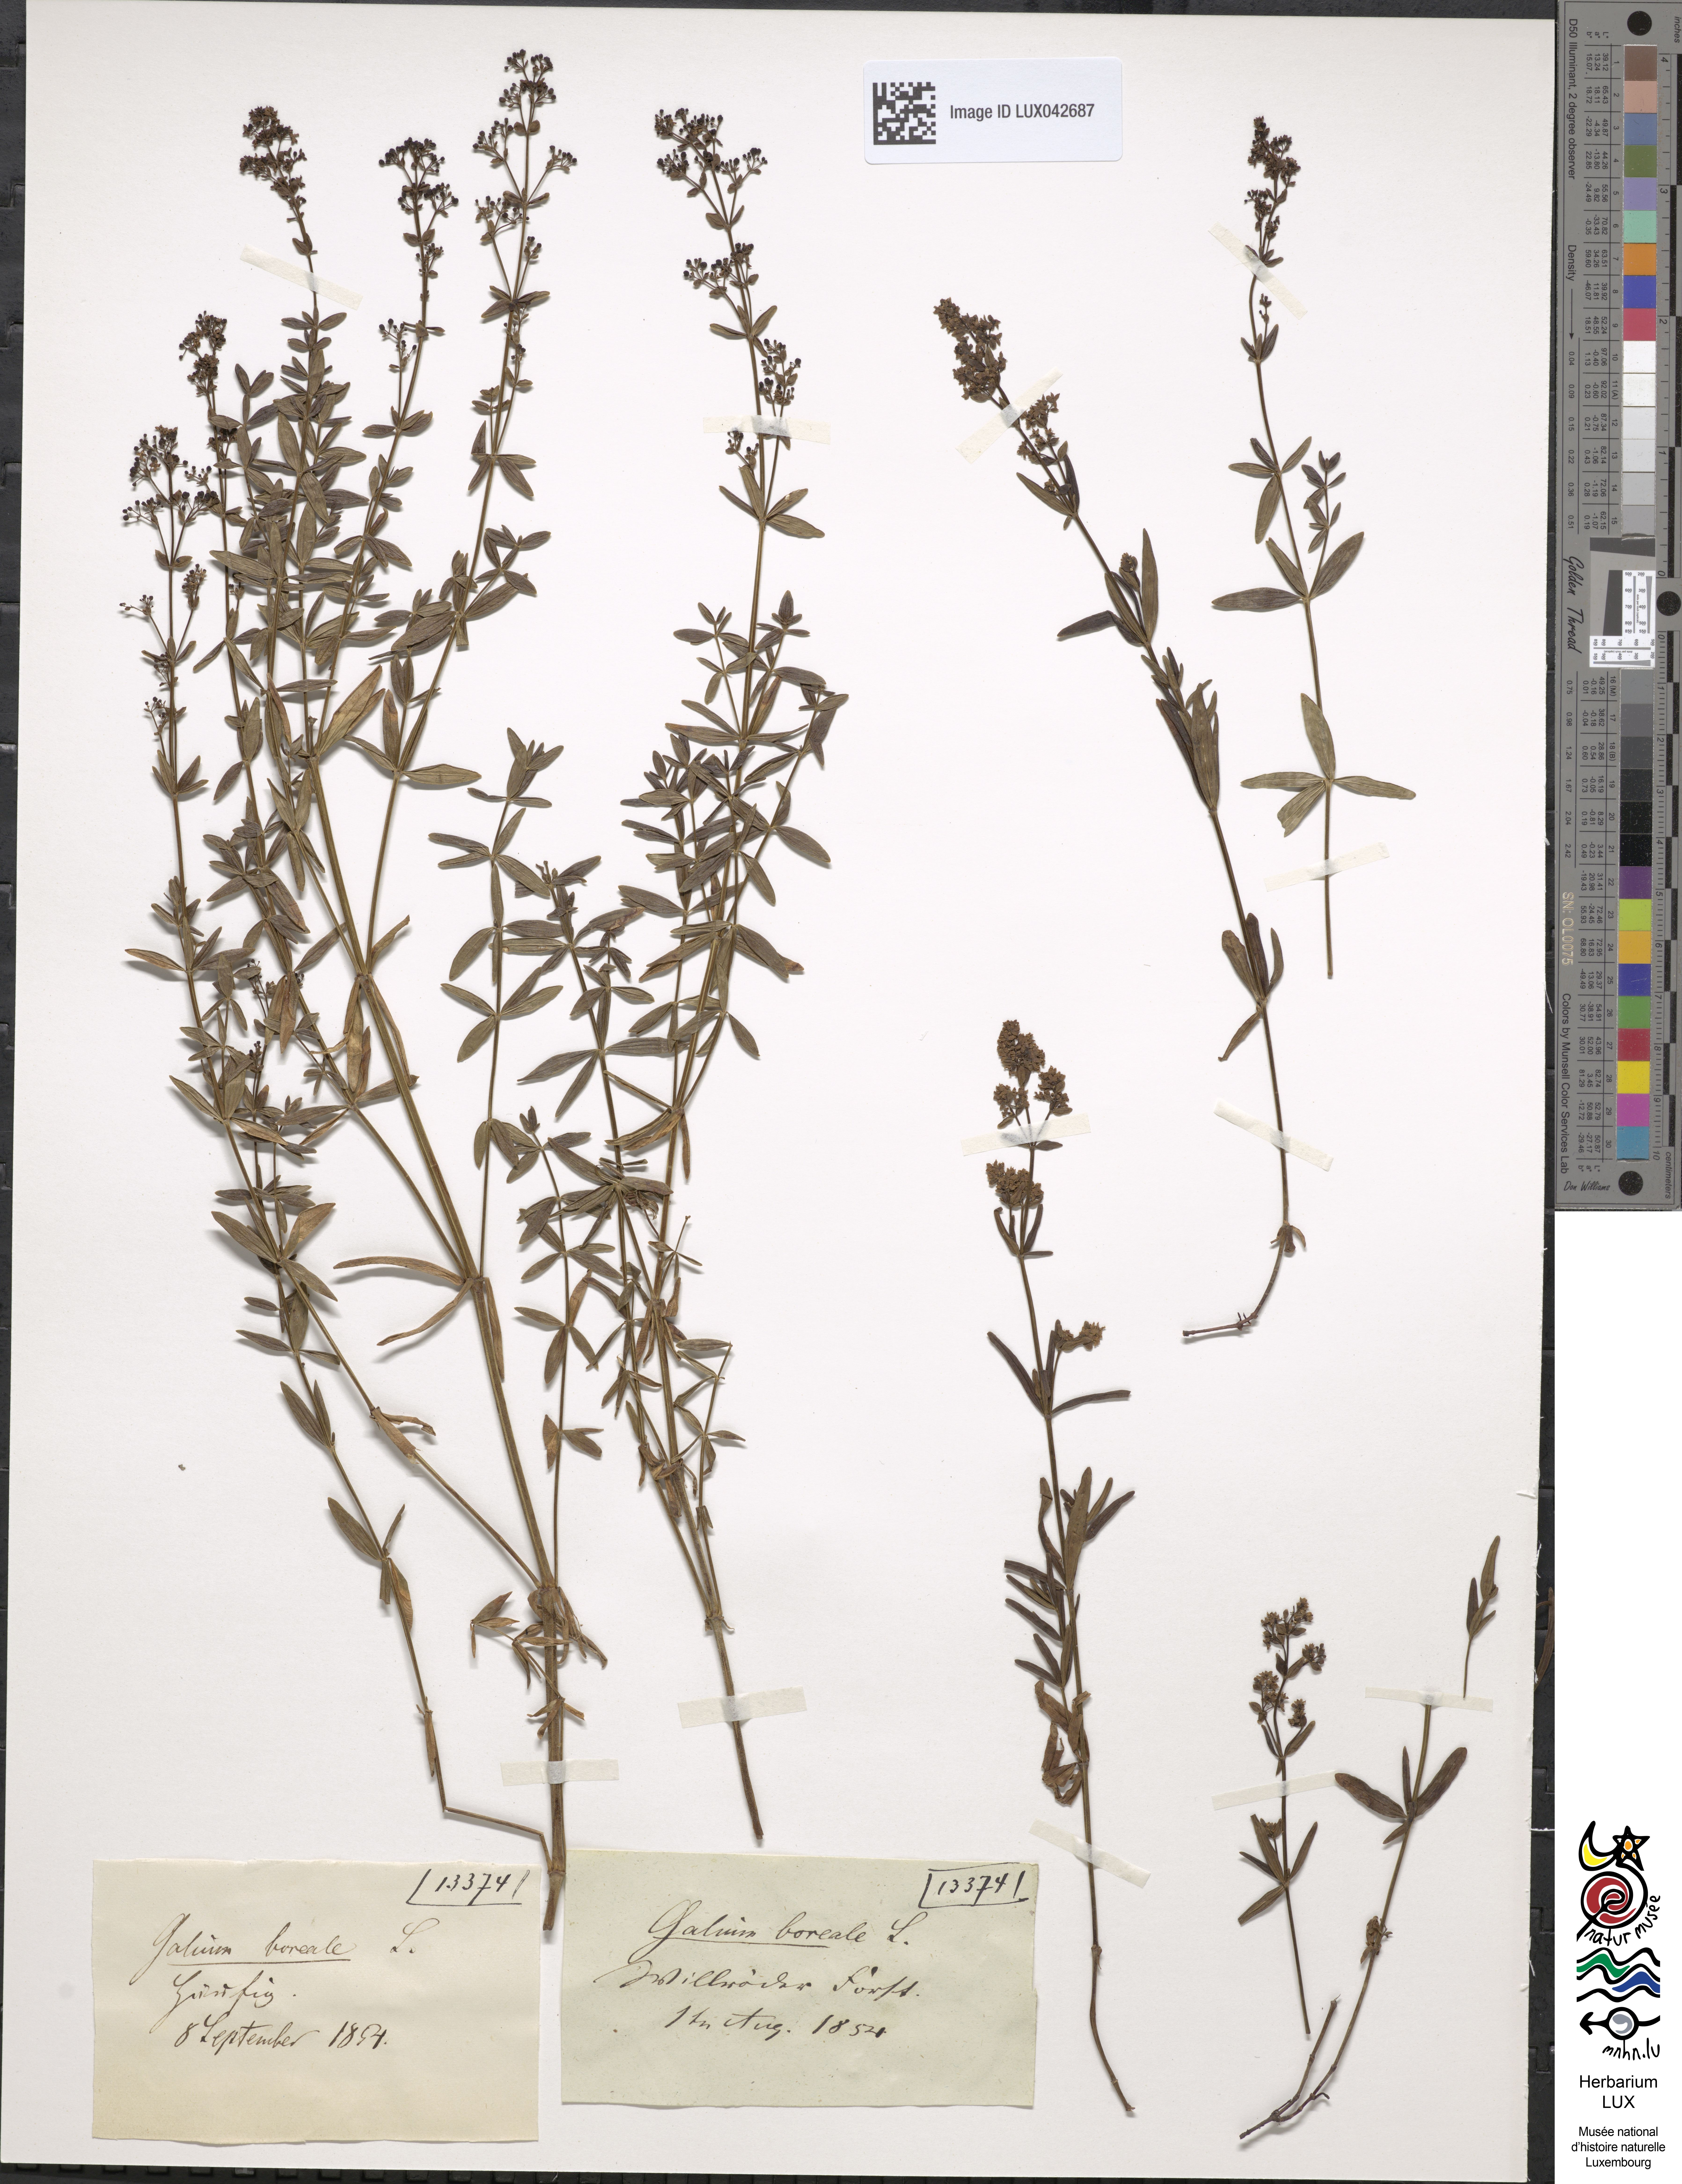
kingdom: Plantae
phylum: Tracheophyta
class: Magnoliopsida
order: Gentianales
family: Rubiaceae
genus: Galium
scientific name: Galium boreale
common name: Northern bedstraw
